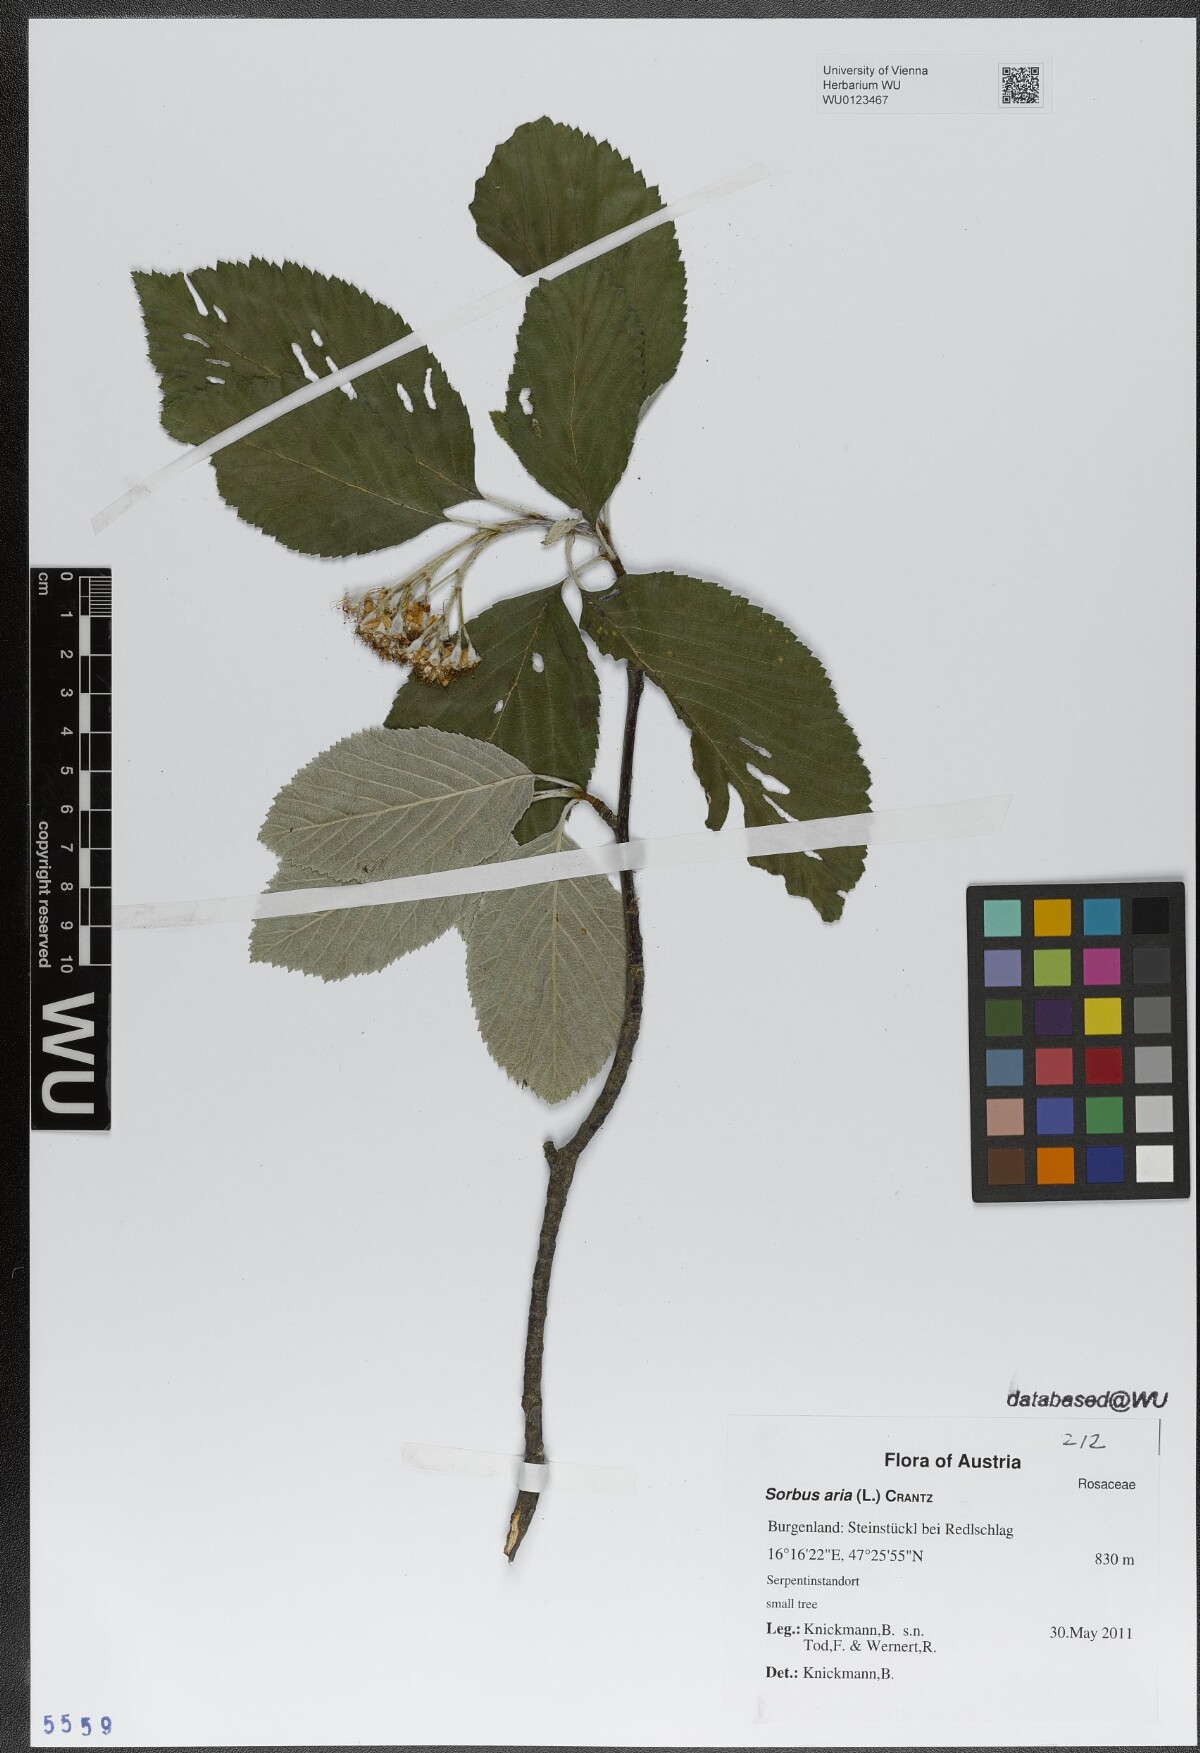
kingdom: Plantae
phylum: Tracheophyta
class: Magnoliopsida
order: Rosales
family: Rosaceae
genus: Aria
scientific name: Aria edulis
